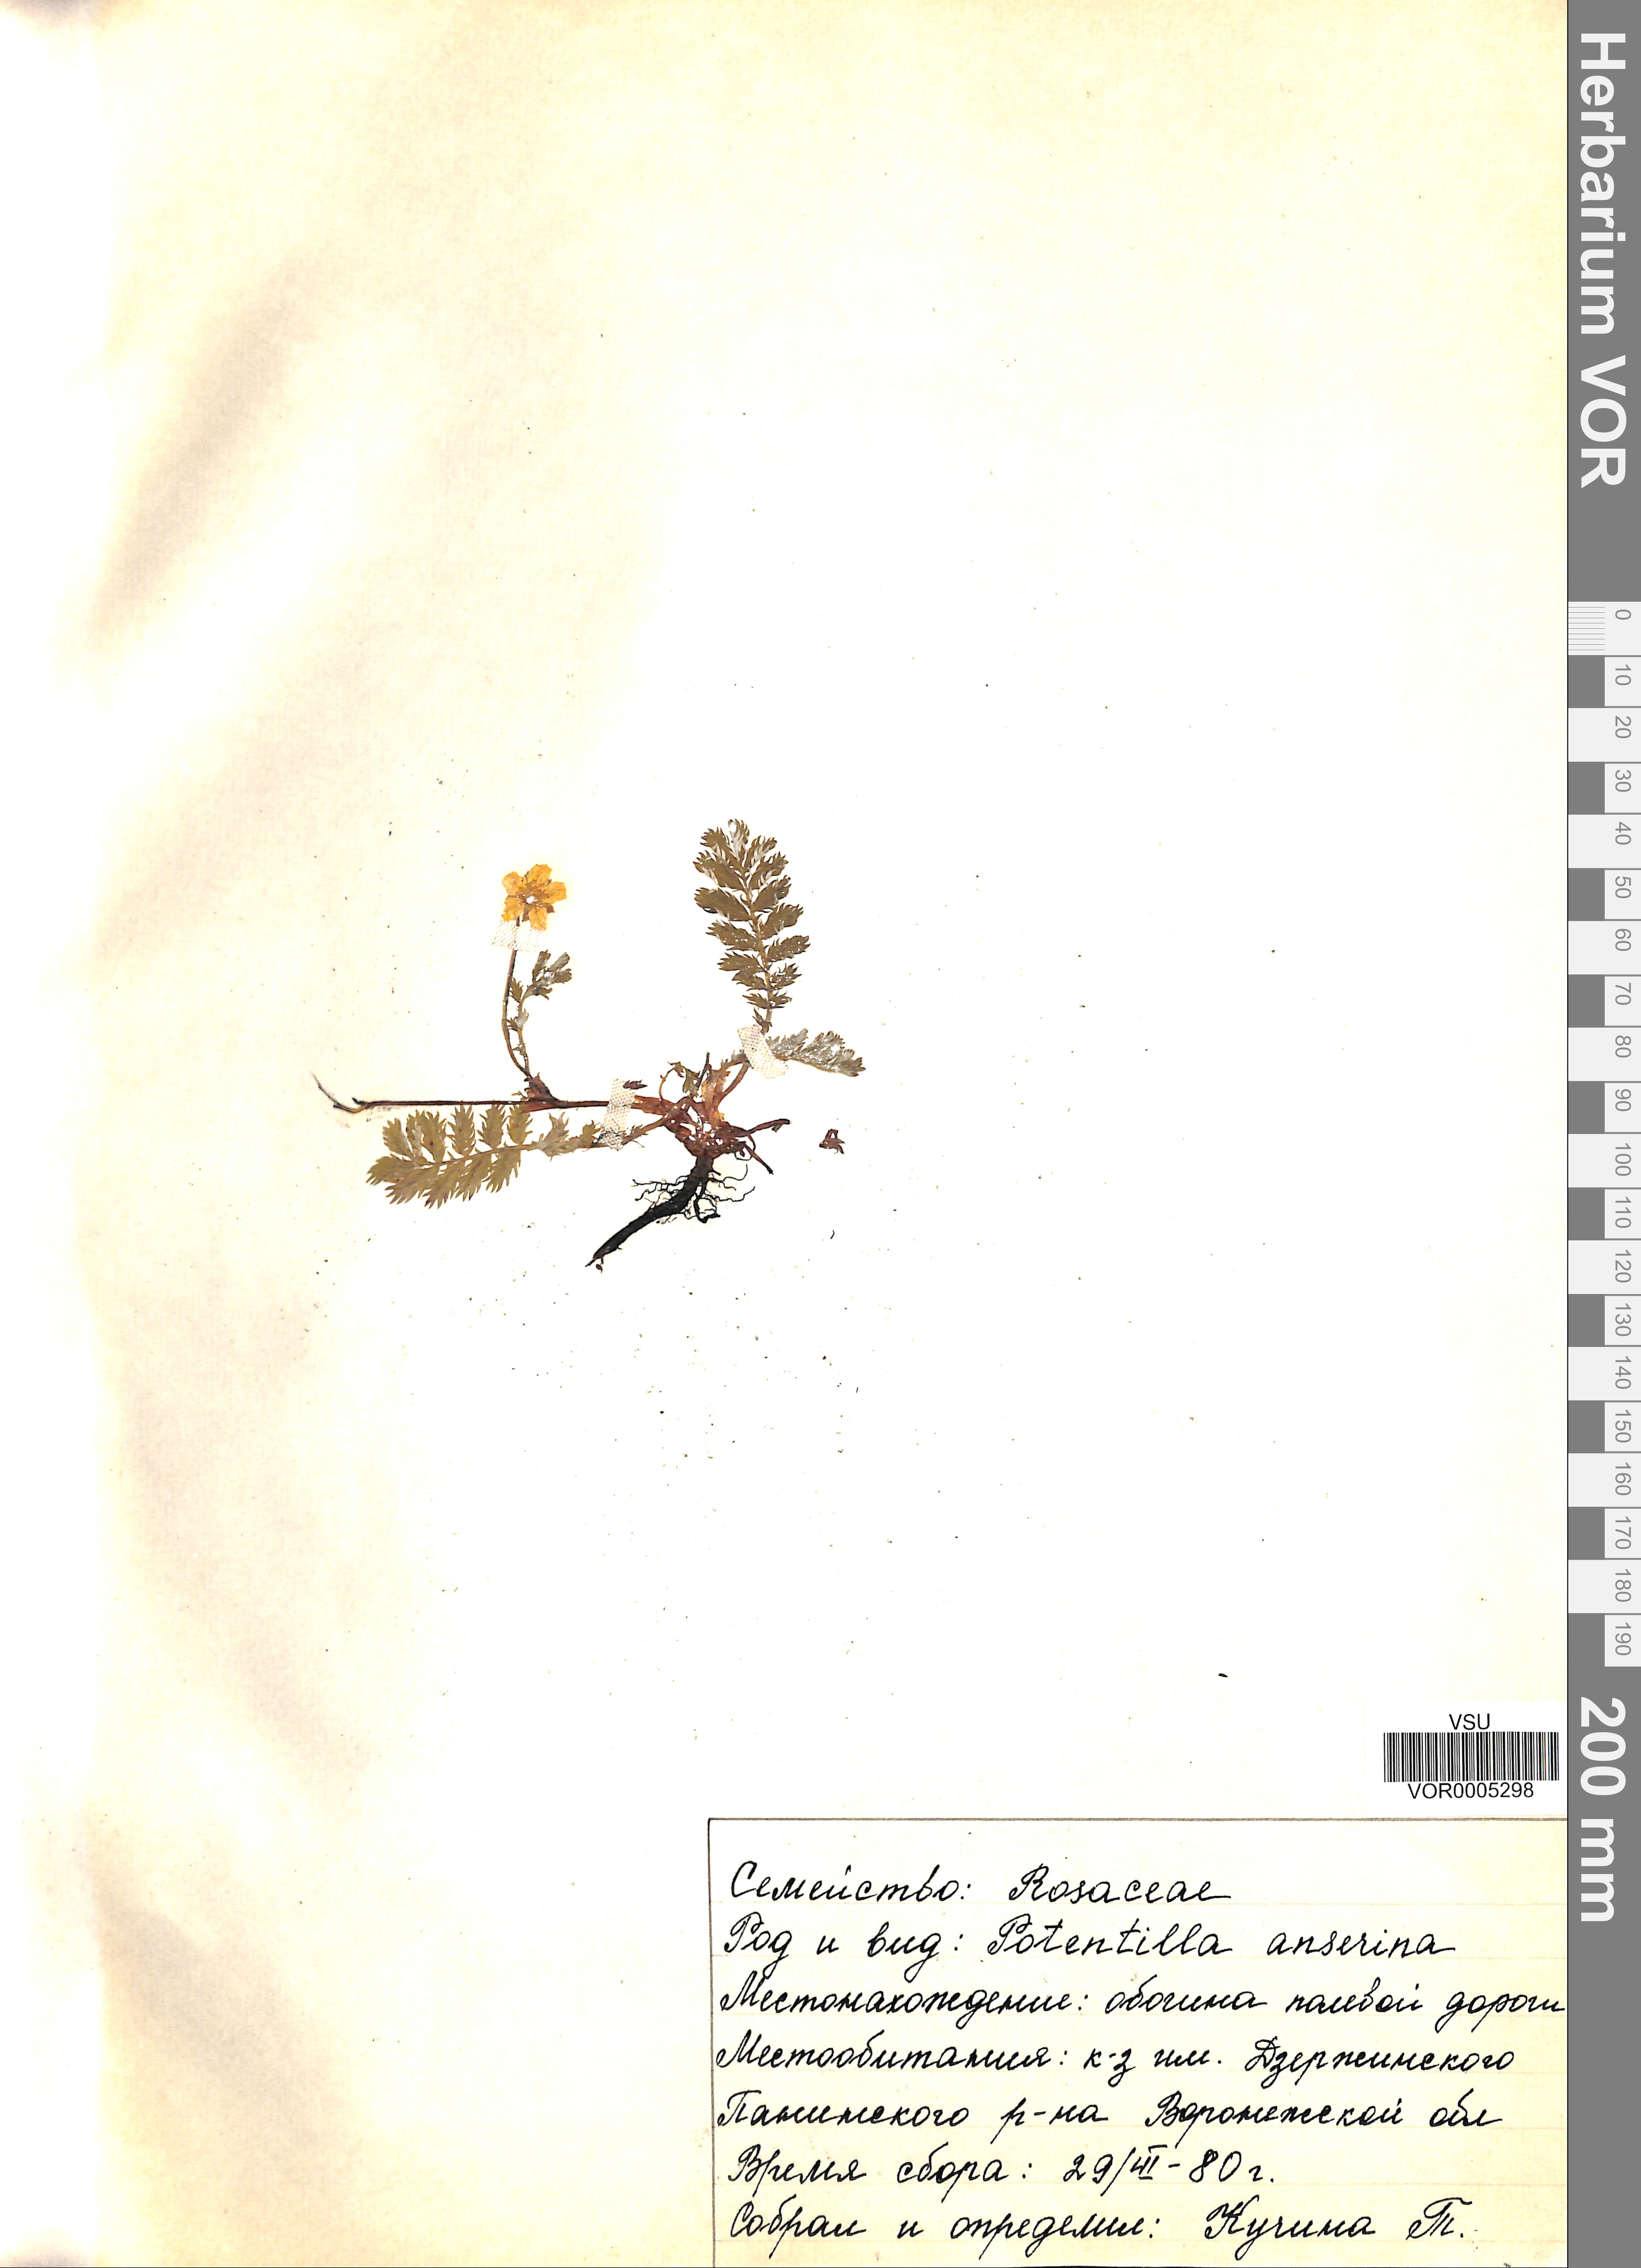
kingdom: Plantae
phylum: Tracheophyta
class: Magnoliopsida
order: Rosales
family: Rosaceae
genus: Argentina
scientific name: Argentina anserina
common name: Common silverweed
